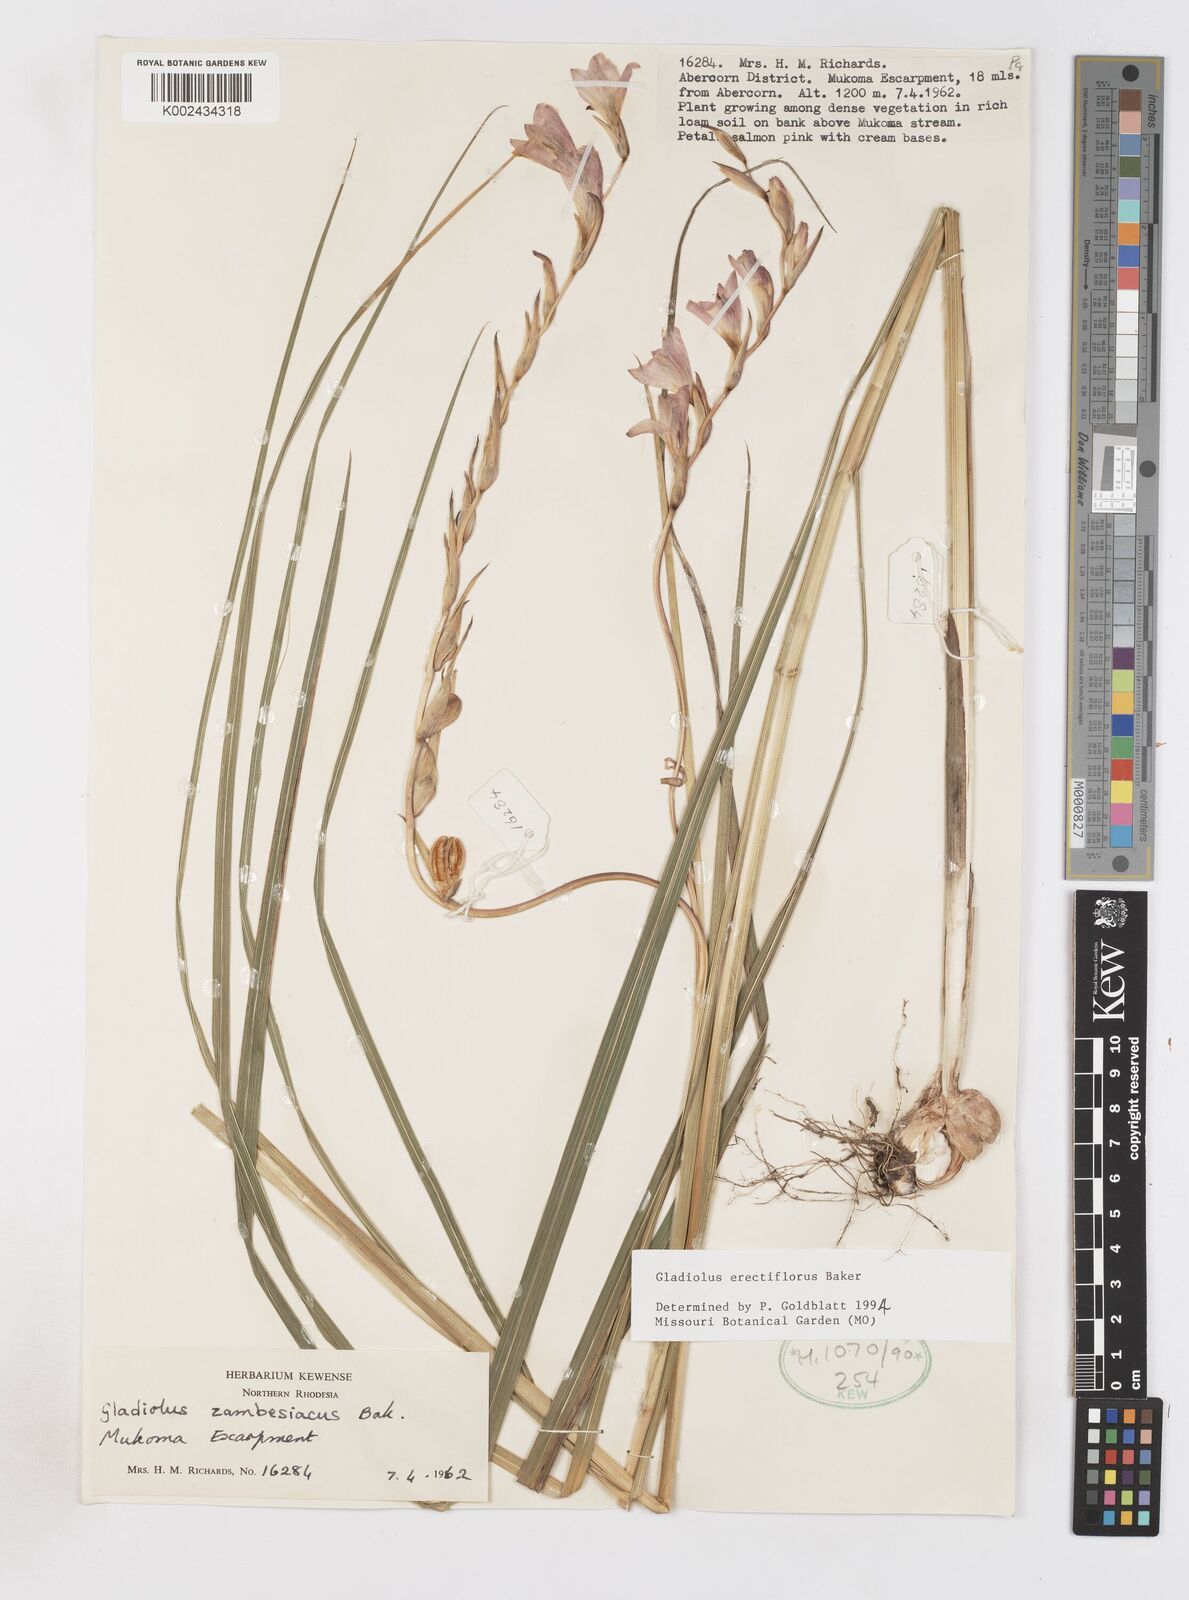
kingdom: Plantae
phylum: Tracheophyta
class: Liliopsida
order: Asparagales
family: Iridaceae
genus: Gladiolus
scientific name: Gladiolus erectiflorus
